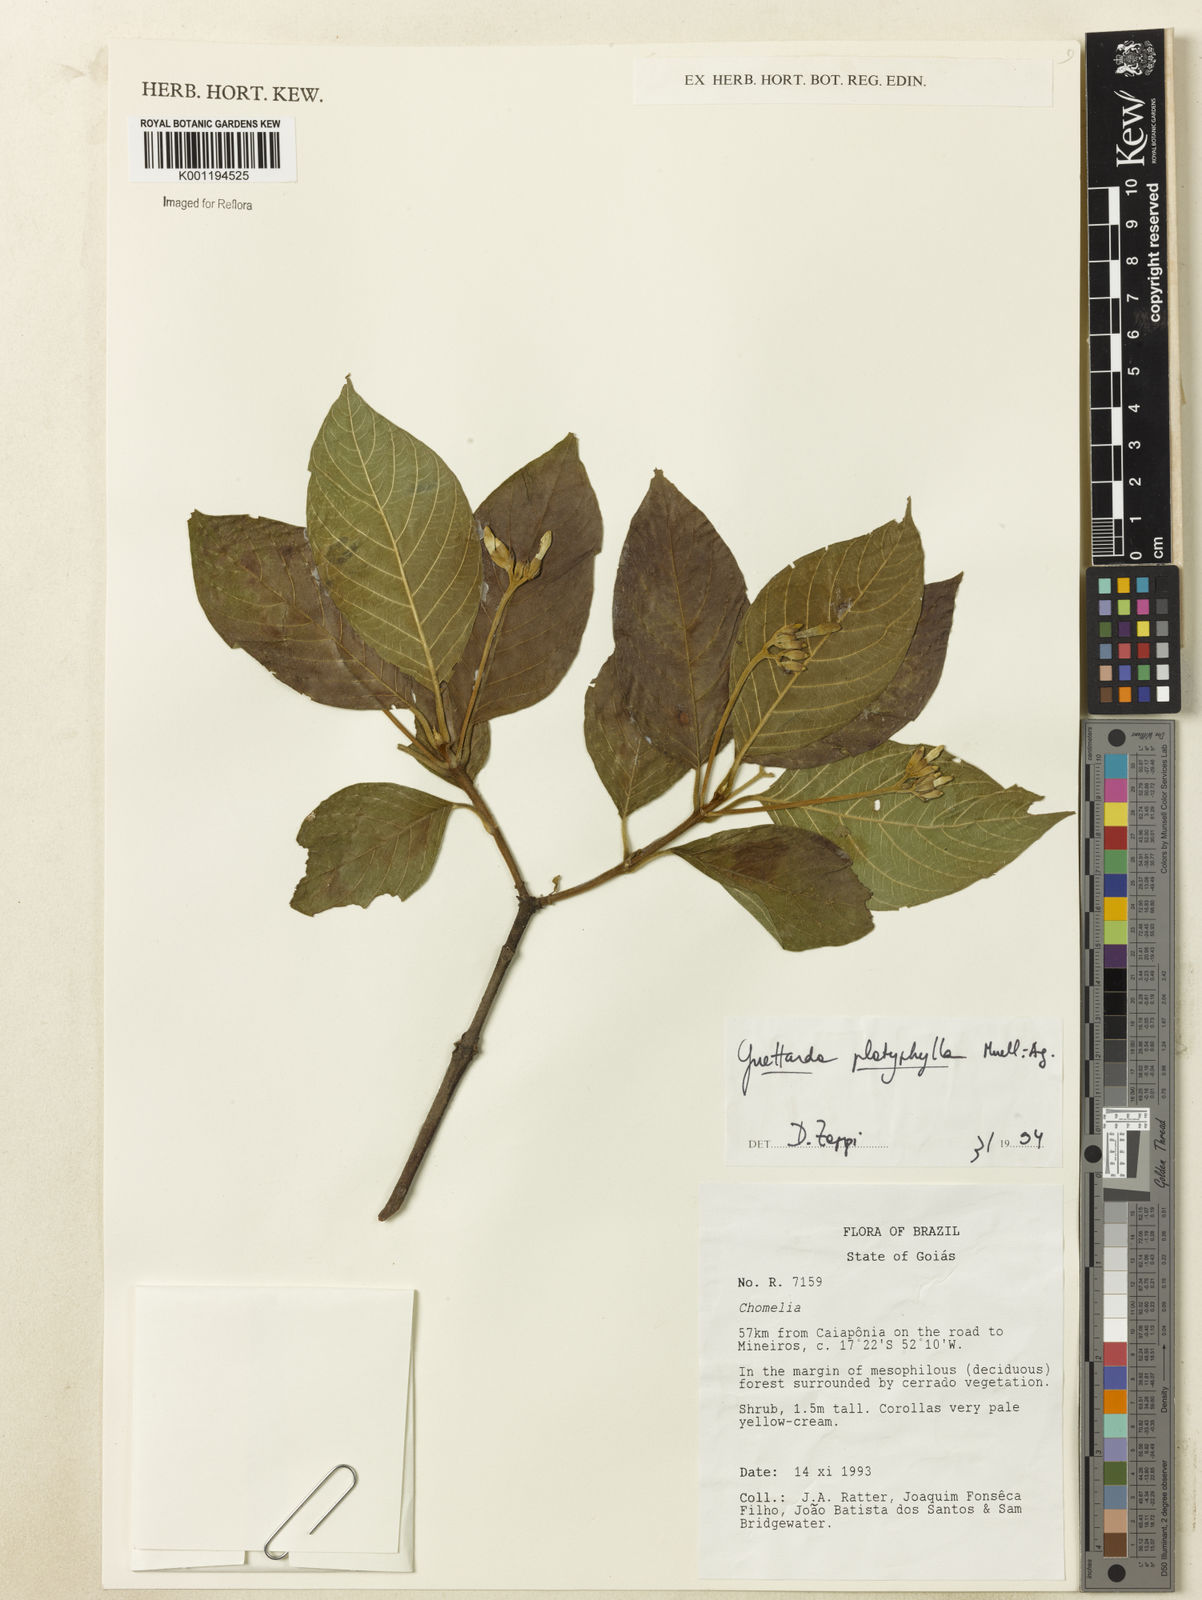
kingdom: Plantae
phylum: Tracheophyta
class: Magnoliopsida
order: Gentianales
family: Rubiaceae
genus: Guettarda
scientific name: Guettarda
